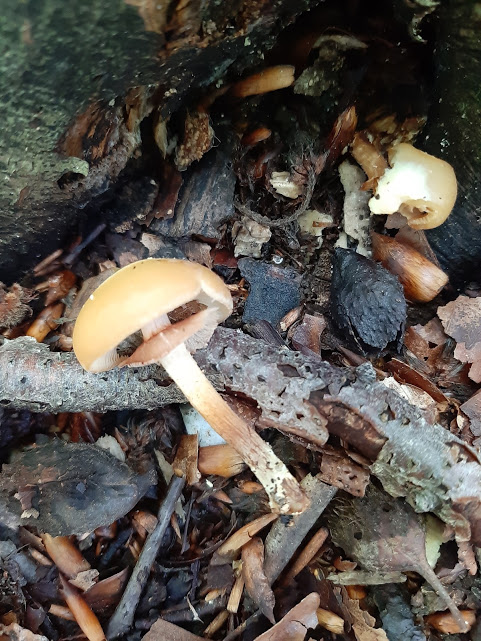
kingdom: Fungi
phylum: Basidiomycota
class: Agaricomycetes
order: Agaricales
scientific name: Agaricales
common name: champignonordenen
